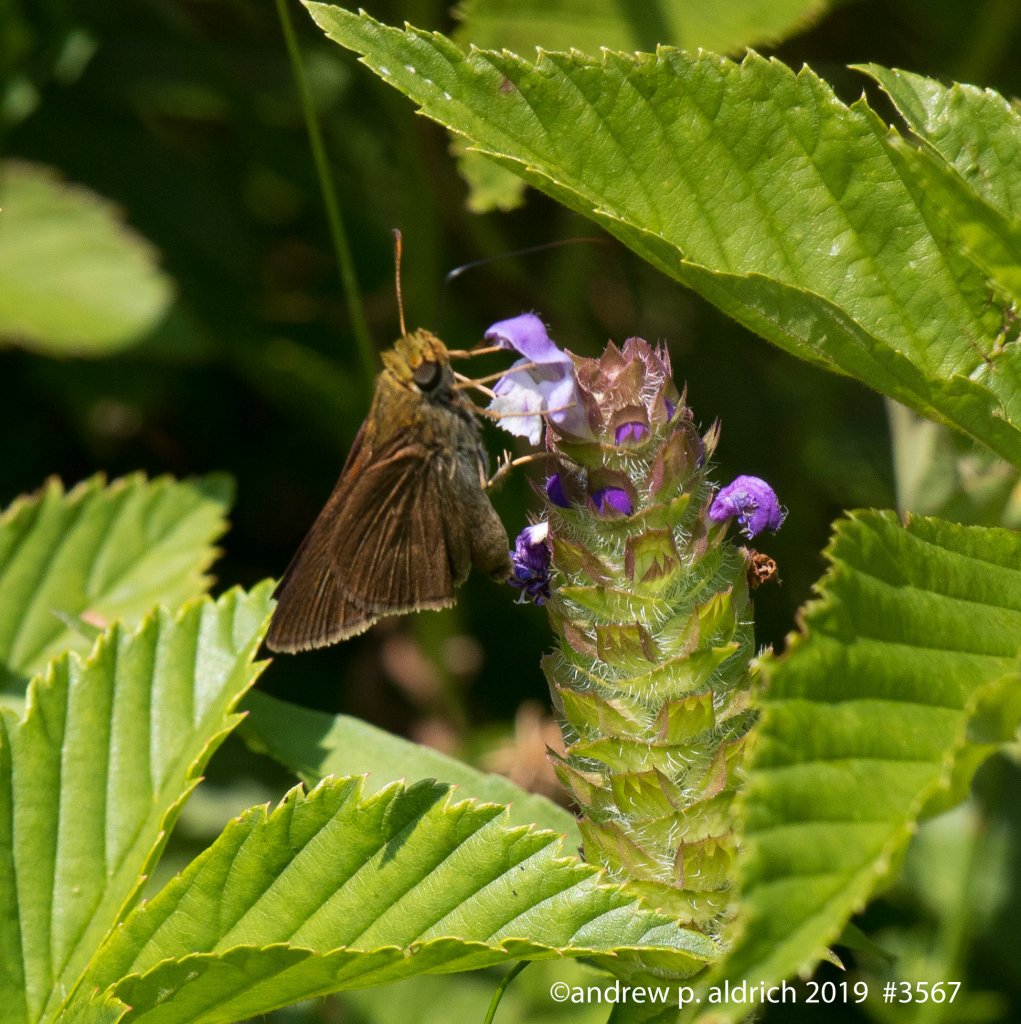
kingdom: Animalia
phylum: Arthropoda
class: Insecta
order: Lepidoptera
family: Hesperiidae
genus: Euphyes
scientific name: Euphyes vestris
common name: Dun Skipper
